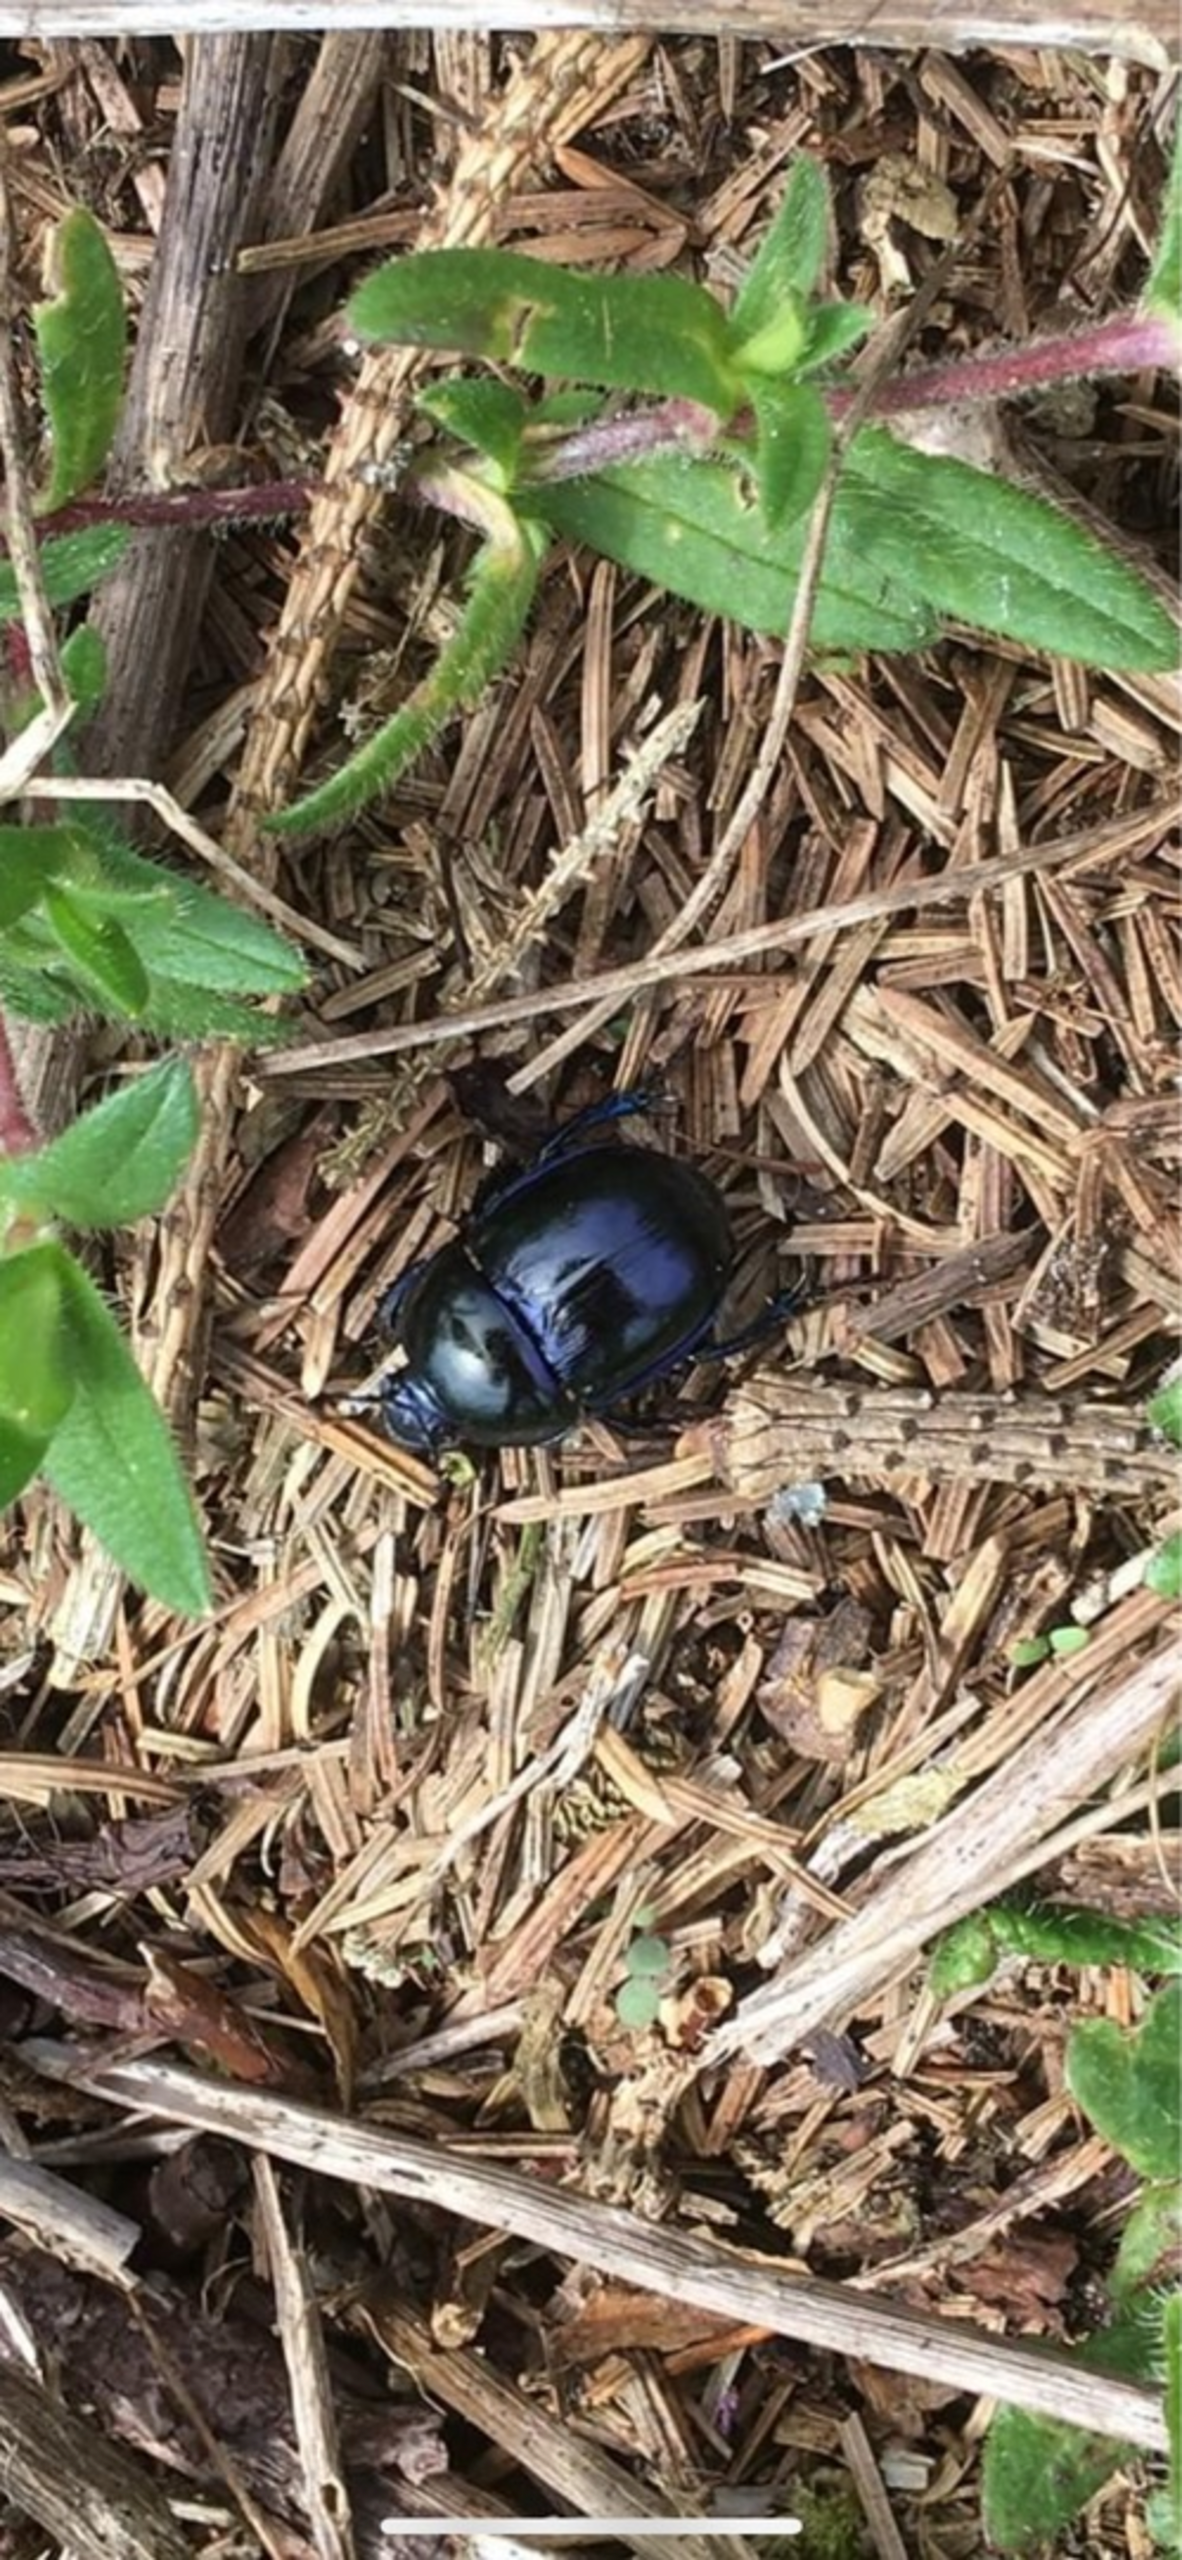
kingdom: Animalia
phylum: Arthropoda
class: Insecta
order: Coleoptera
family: Geotrupidae
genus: Trypocopris
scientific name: Trypocopris vernalis
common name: Glat skarnbasse
